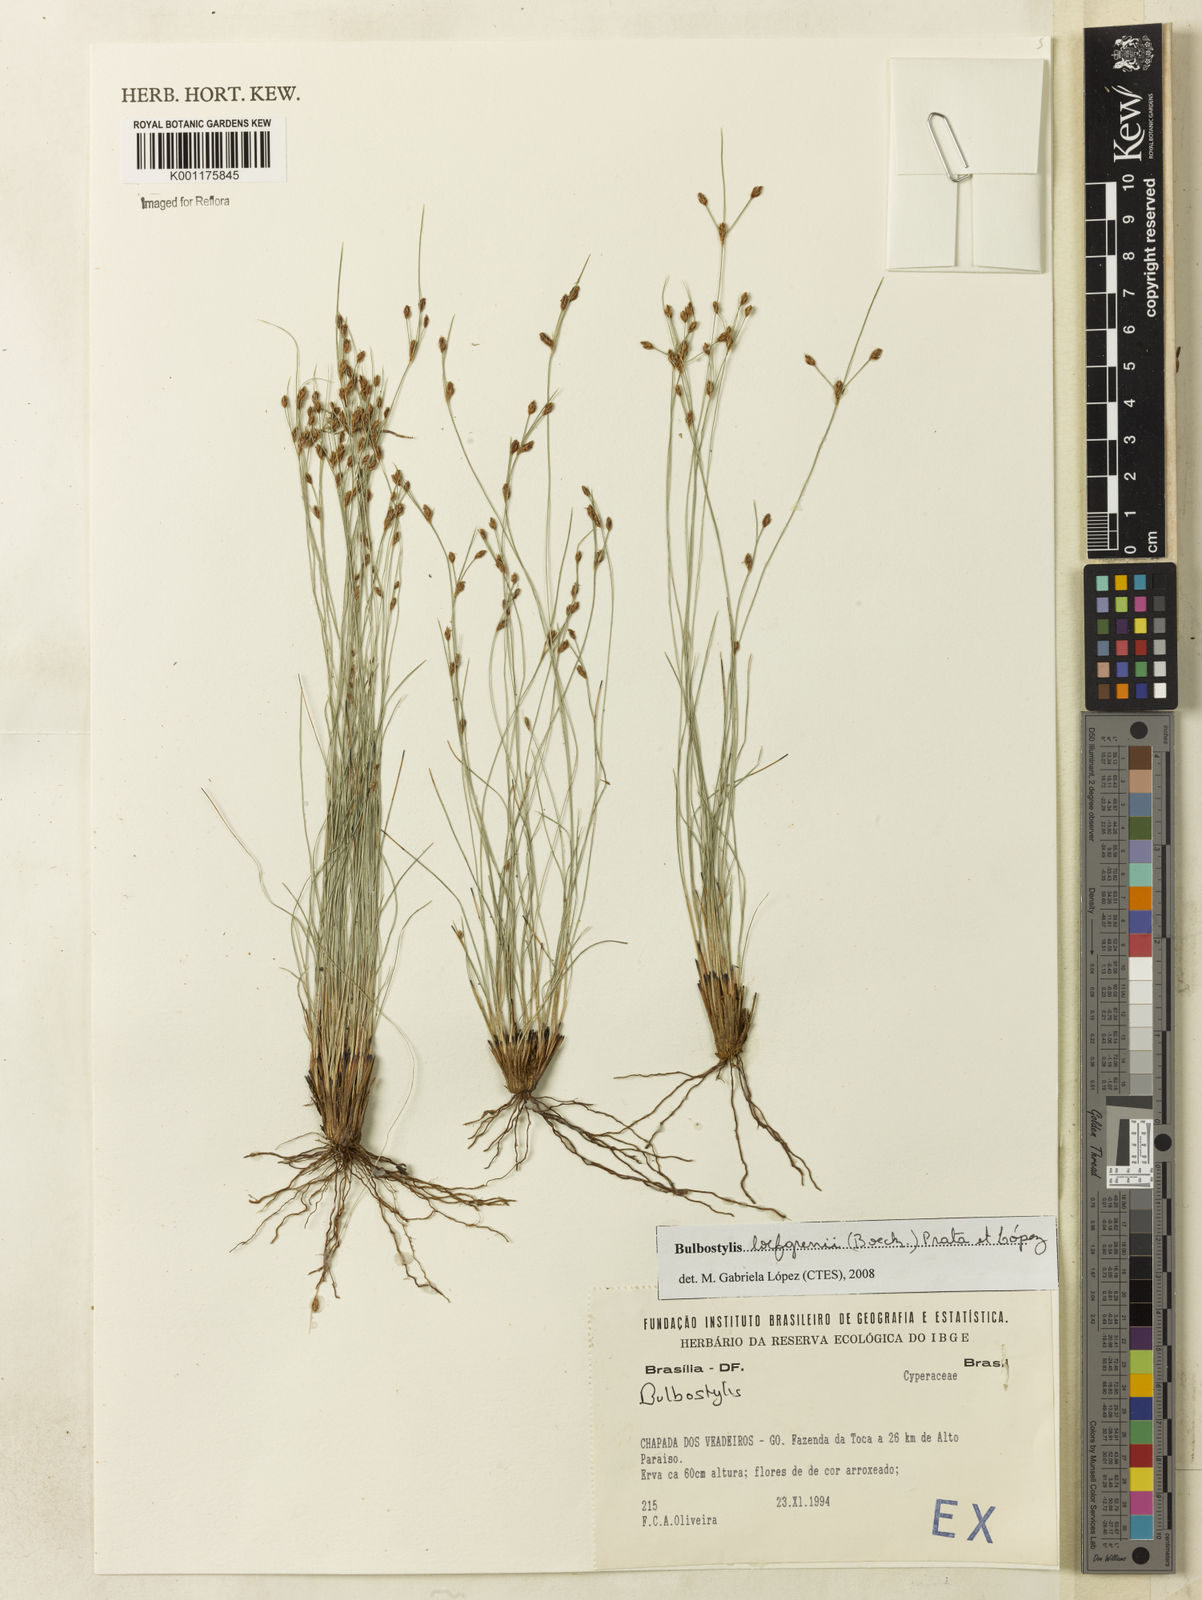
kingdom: Plantae
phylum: Tracheophyta
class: Liliopsida
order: Poales
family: Cyperaceae
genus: Bulbostylis
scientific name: Bulbostylis loefgrenii
